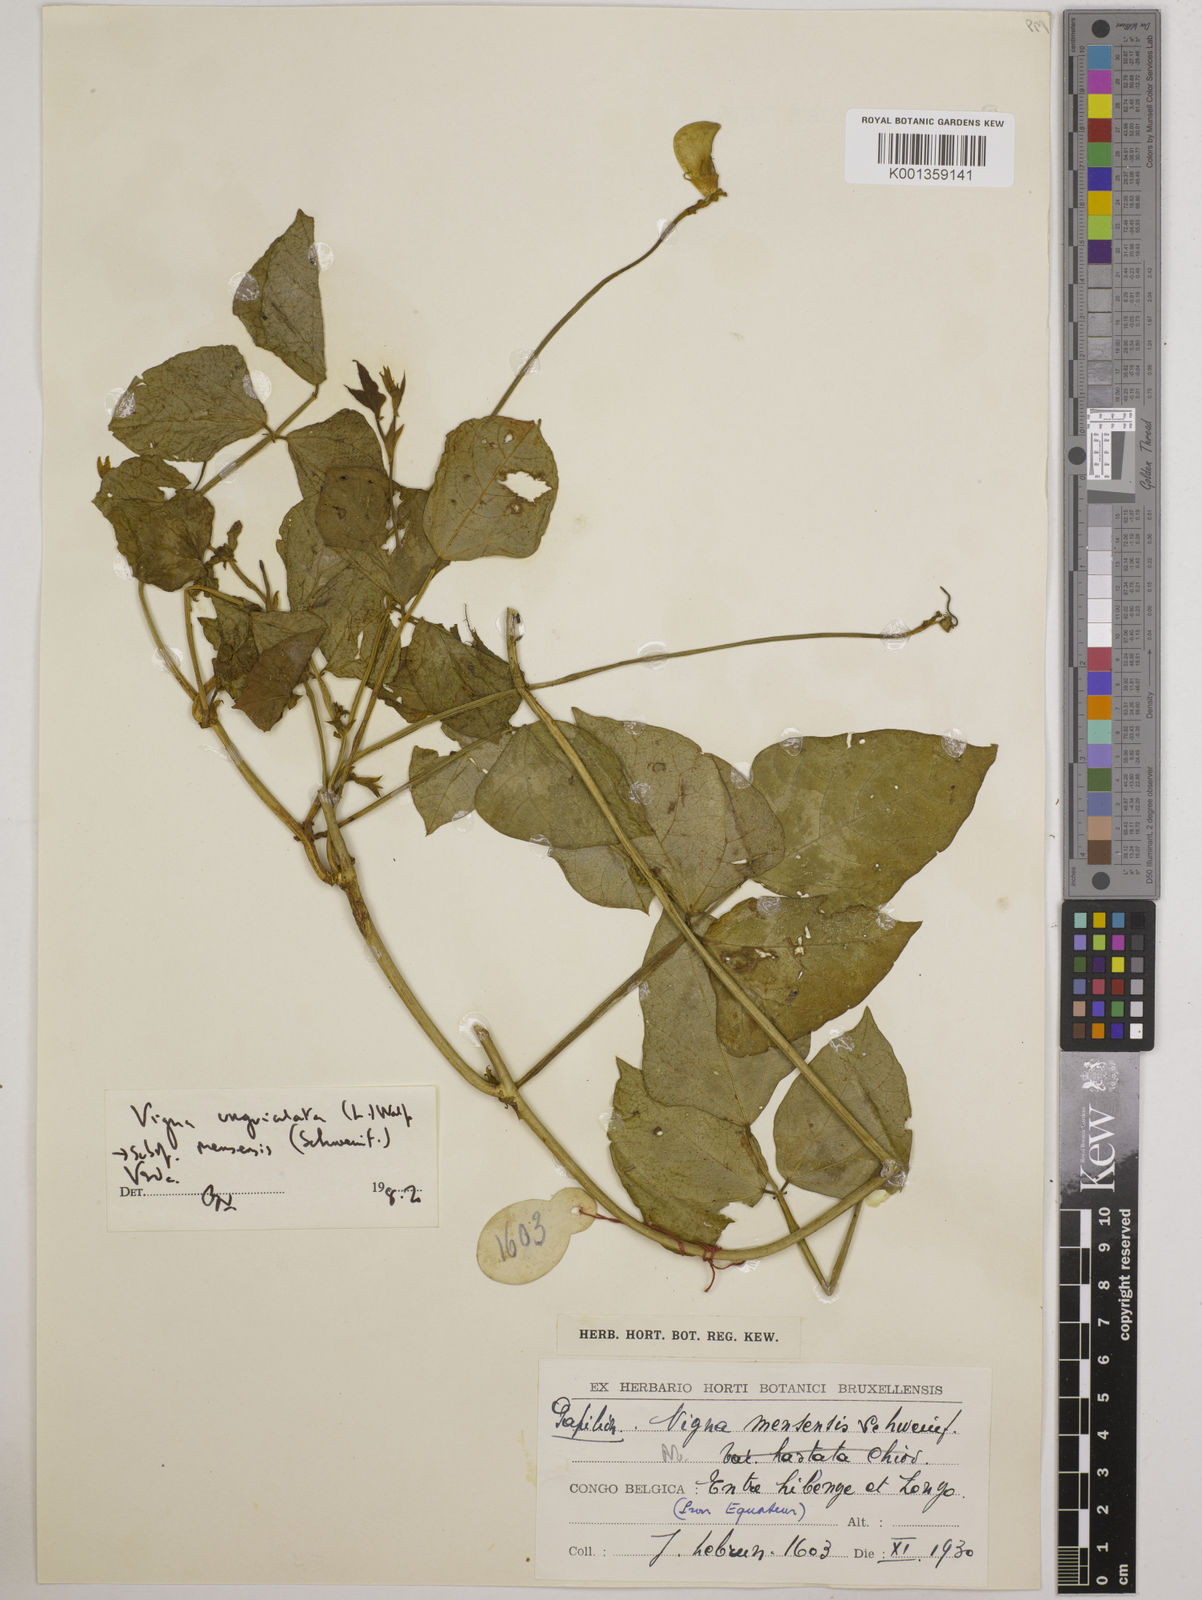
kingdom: Plantae
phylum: Tracheophyta
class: Magnoliopsida
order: Fabales
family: Fabaceae
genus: Vigna
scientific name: Vigna unguiculata
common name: Cowpea
